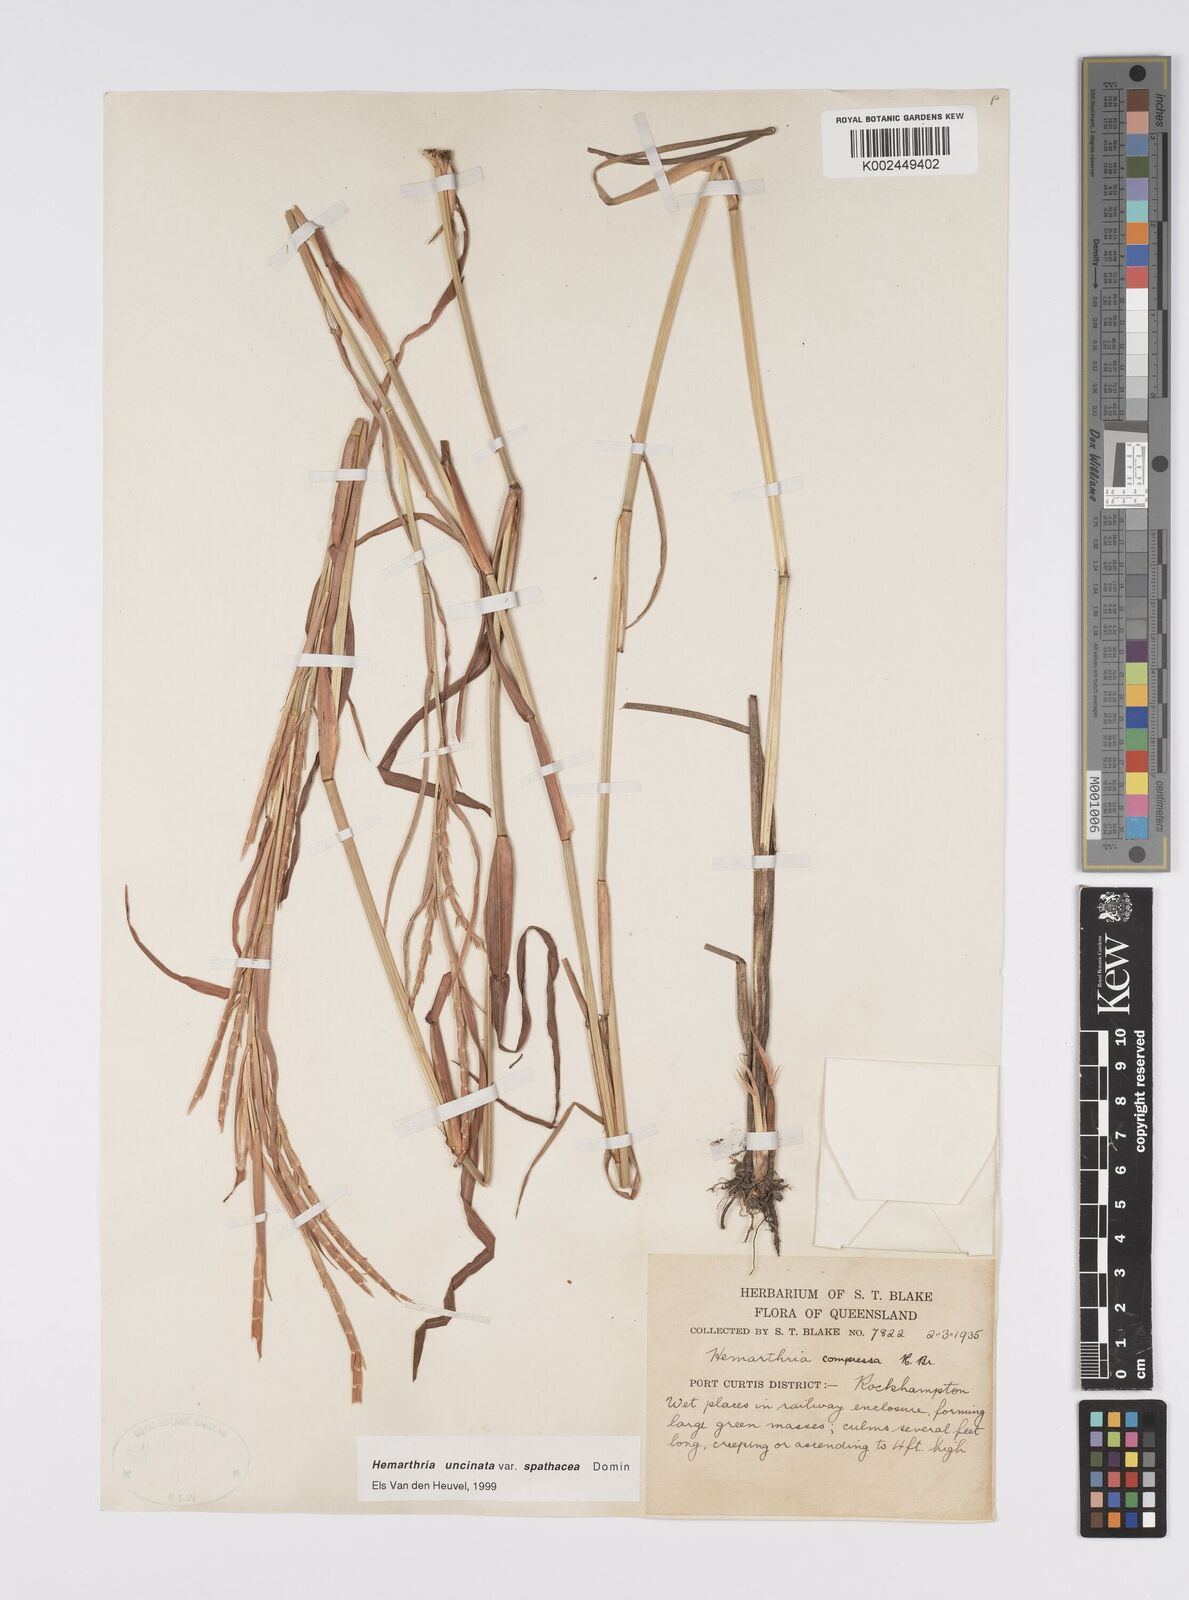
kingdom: Plantae
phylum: Tracheophyta
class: Liliopsida
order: Poales
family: Poaceae
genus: Hemarthria
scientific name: Hemarthria uncinata
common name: Matgrass
